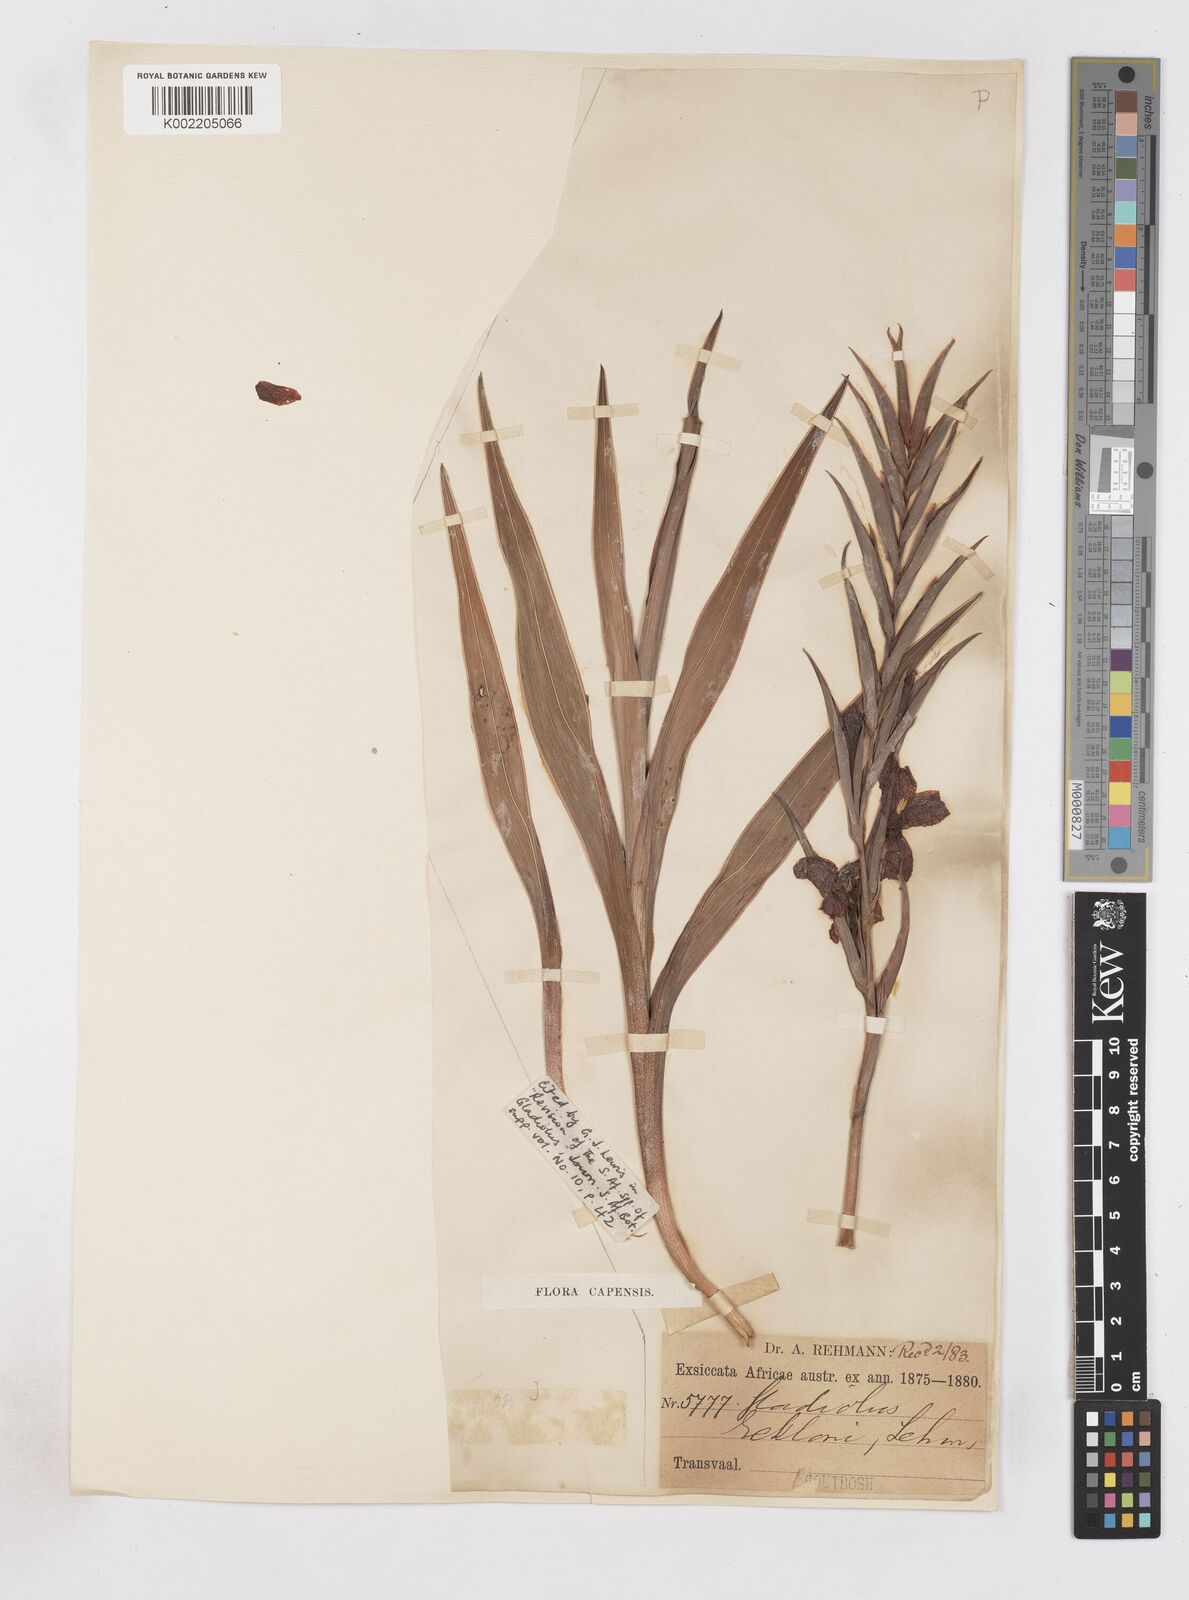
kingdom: Plantae
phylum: Tracheophyta
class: Liliopsida
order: Asparagales
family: Iridaceae
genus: Gladiolus
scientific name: Gladiolus ecklonii
